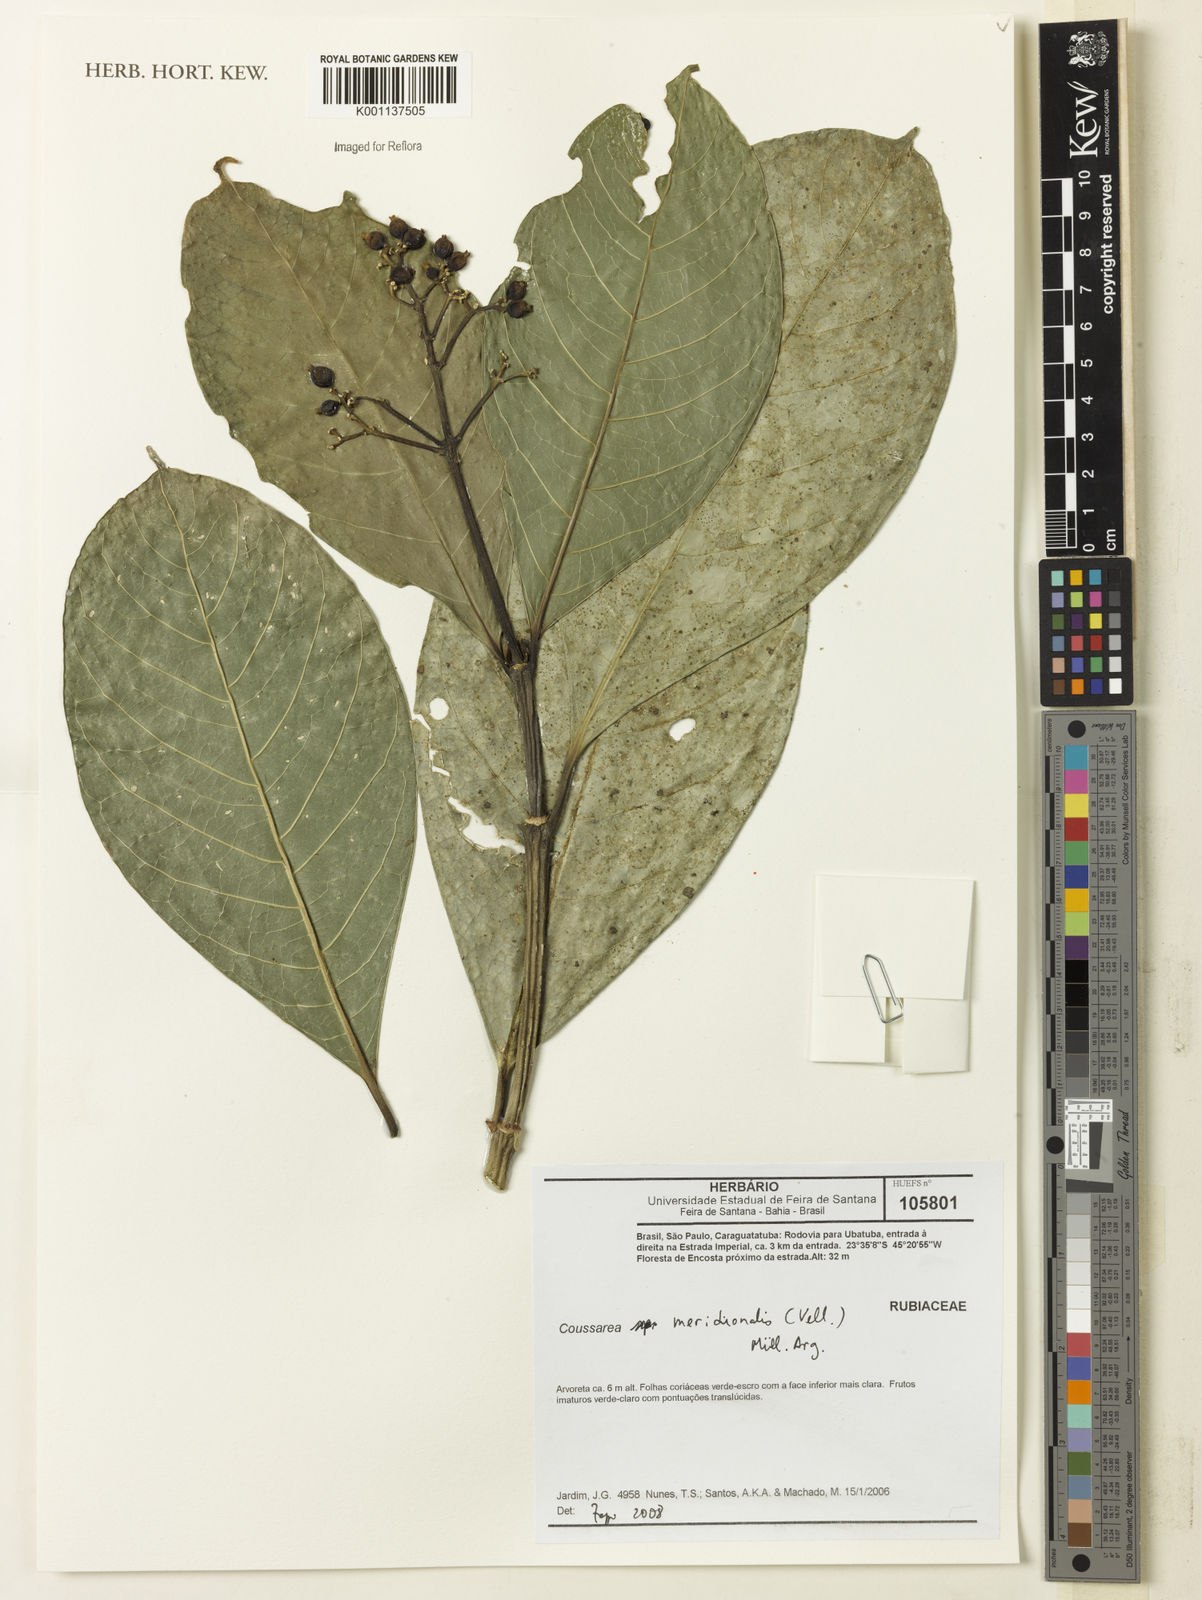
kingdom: Plantae
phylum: Tracheophyta
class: Magnoliopsida
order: Gentianales
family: Rubiaceae
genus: Coussarea
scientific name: Coussarea
